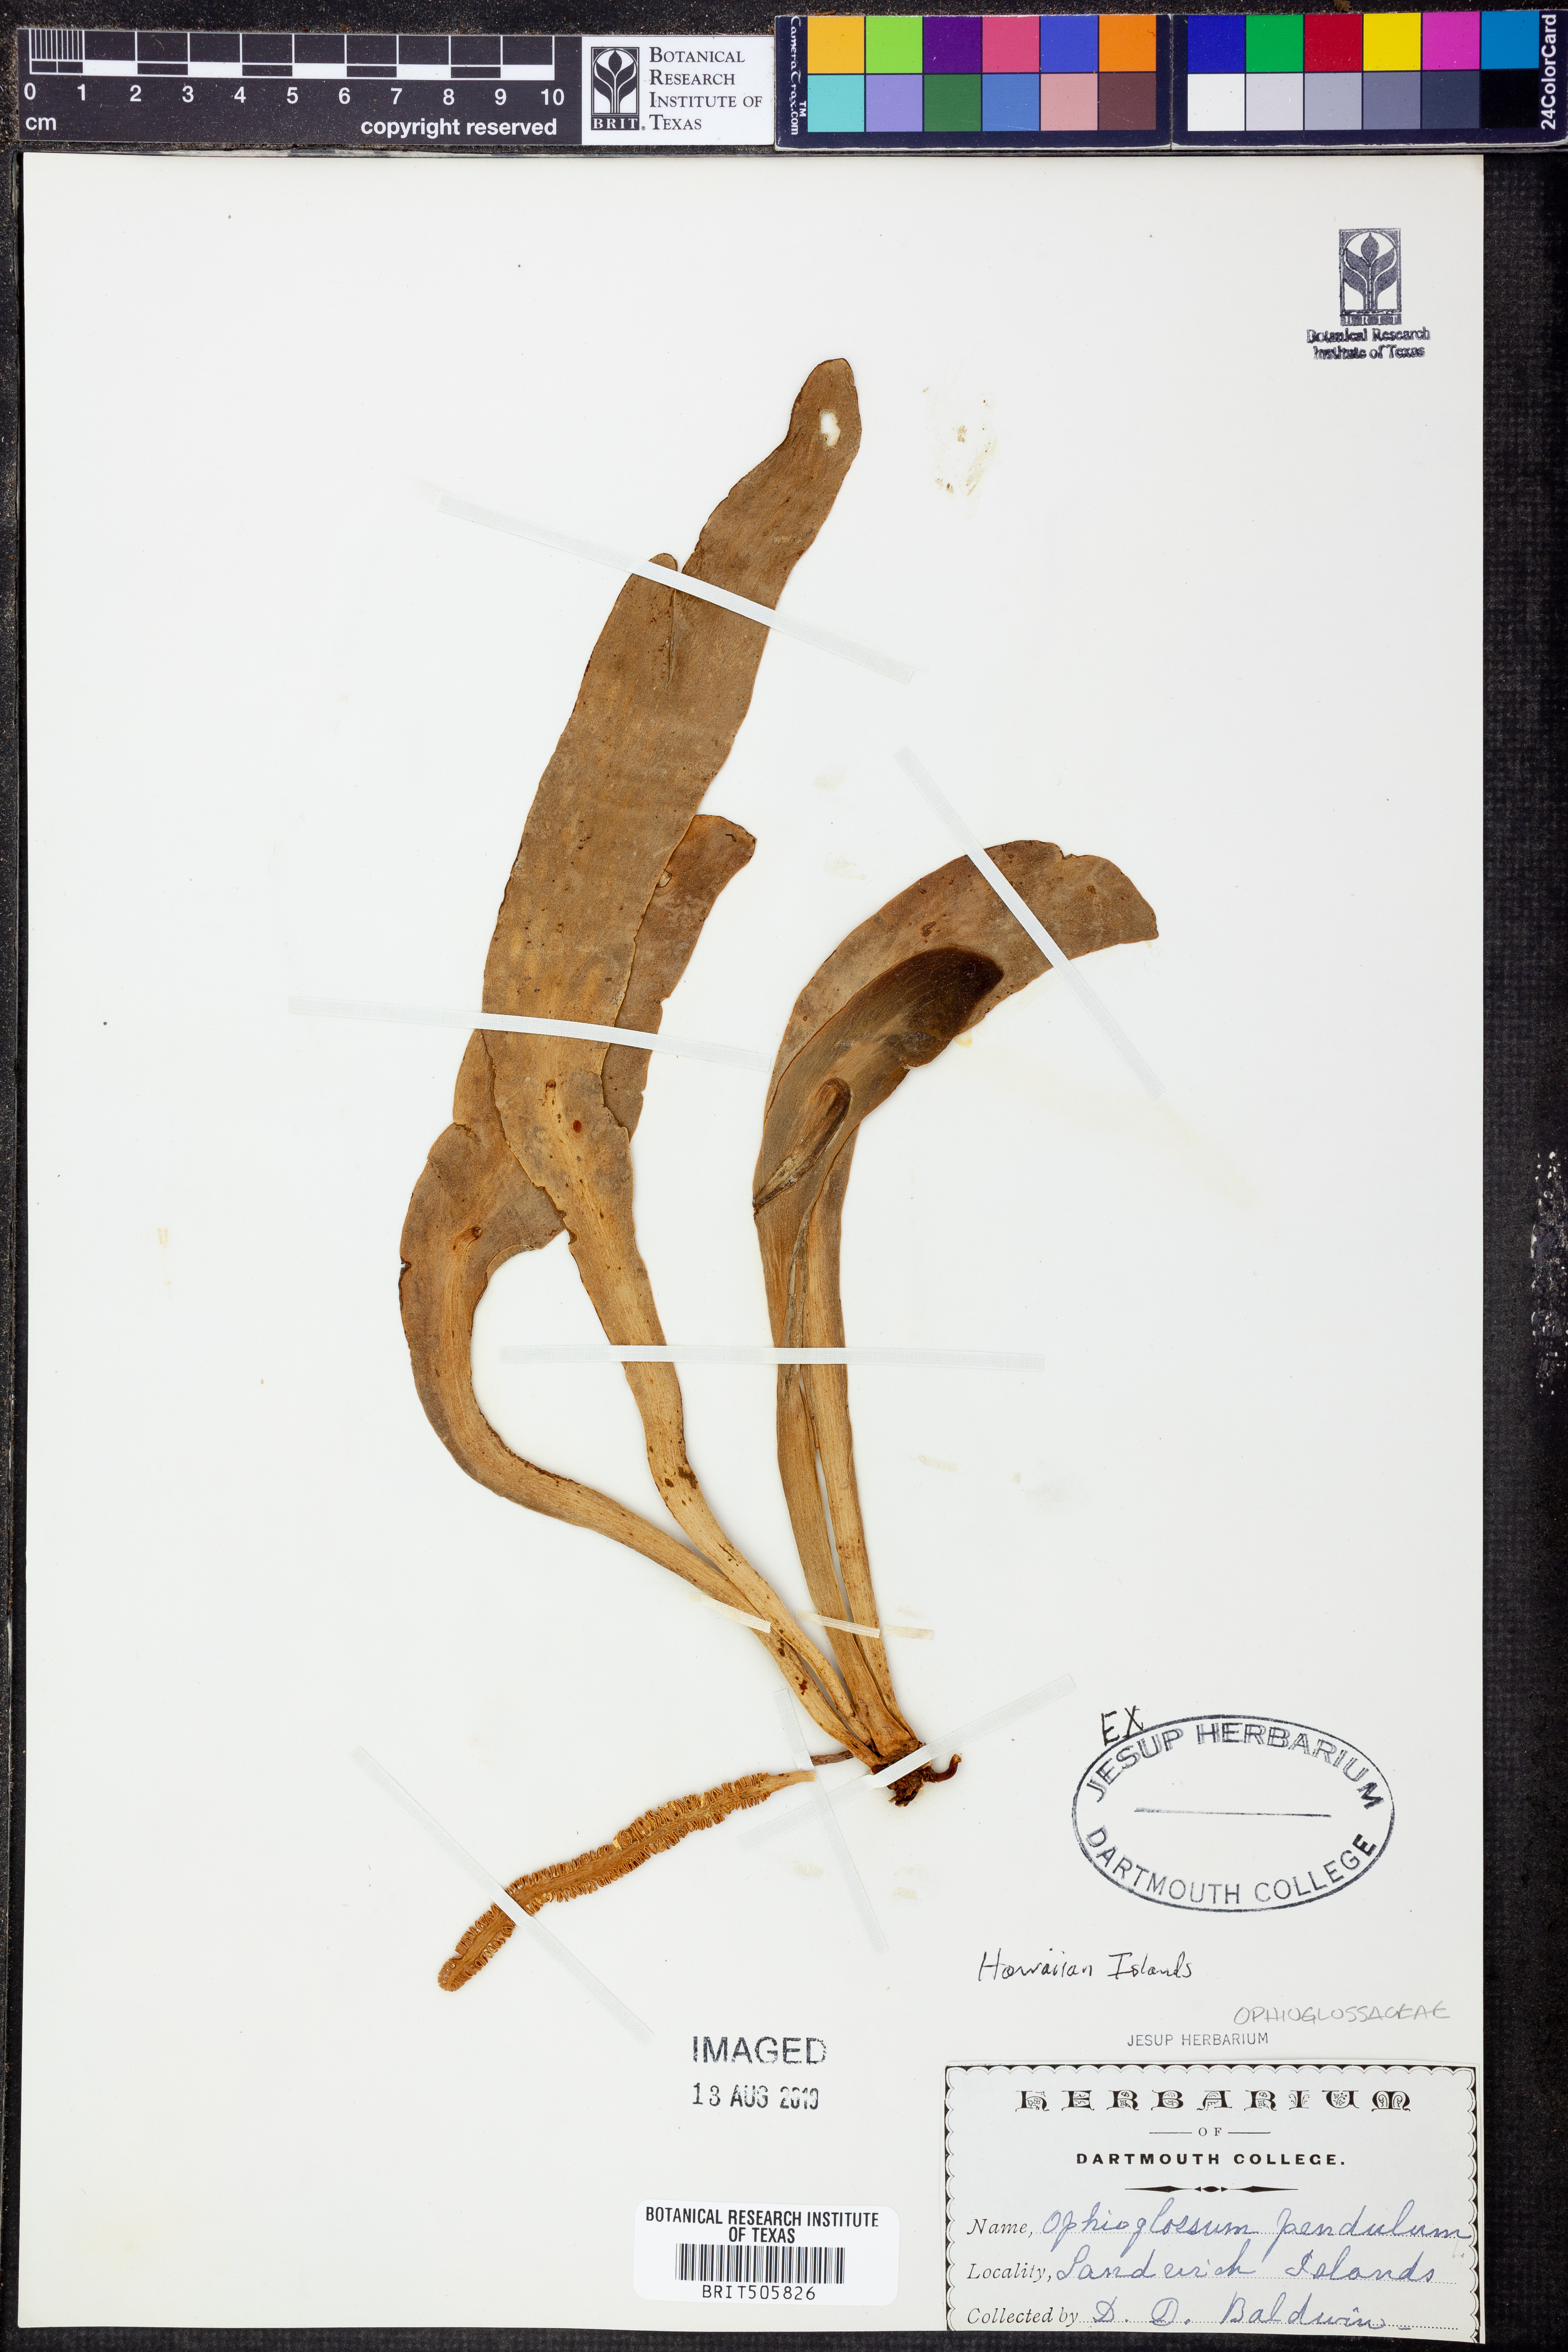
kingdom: Plantae
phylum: Tracheophyta
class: Polypodiopsida
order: Ophioglossales
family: Ophioglossaceae
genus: Ophioderma
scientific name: Ophioderma pendulum
